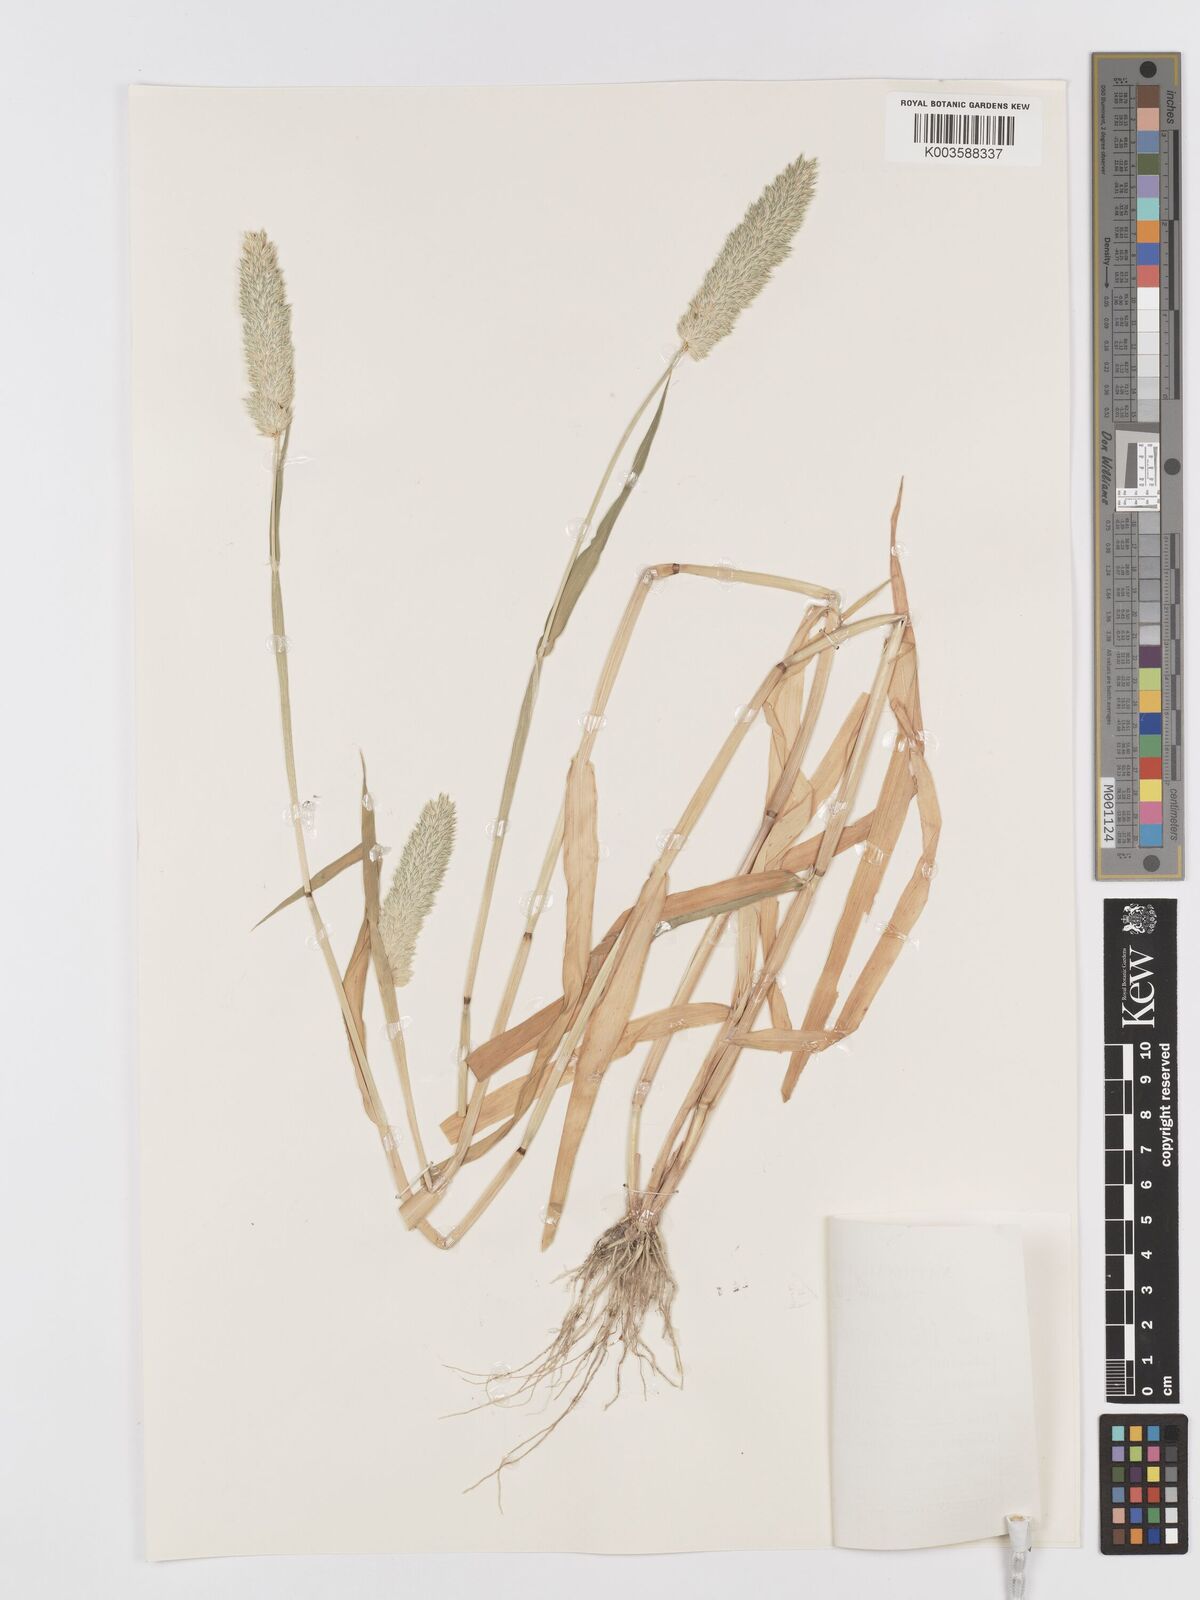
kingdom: Plantae
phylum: Tracheophyta
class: Liliopsida
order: Poales
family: Poaceae
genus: Phalaris
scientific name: Phalaris minor
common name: Littleseed canarygrass
